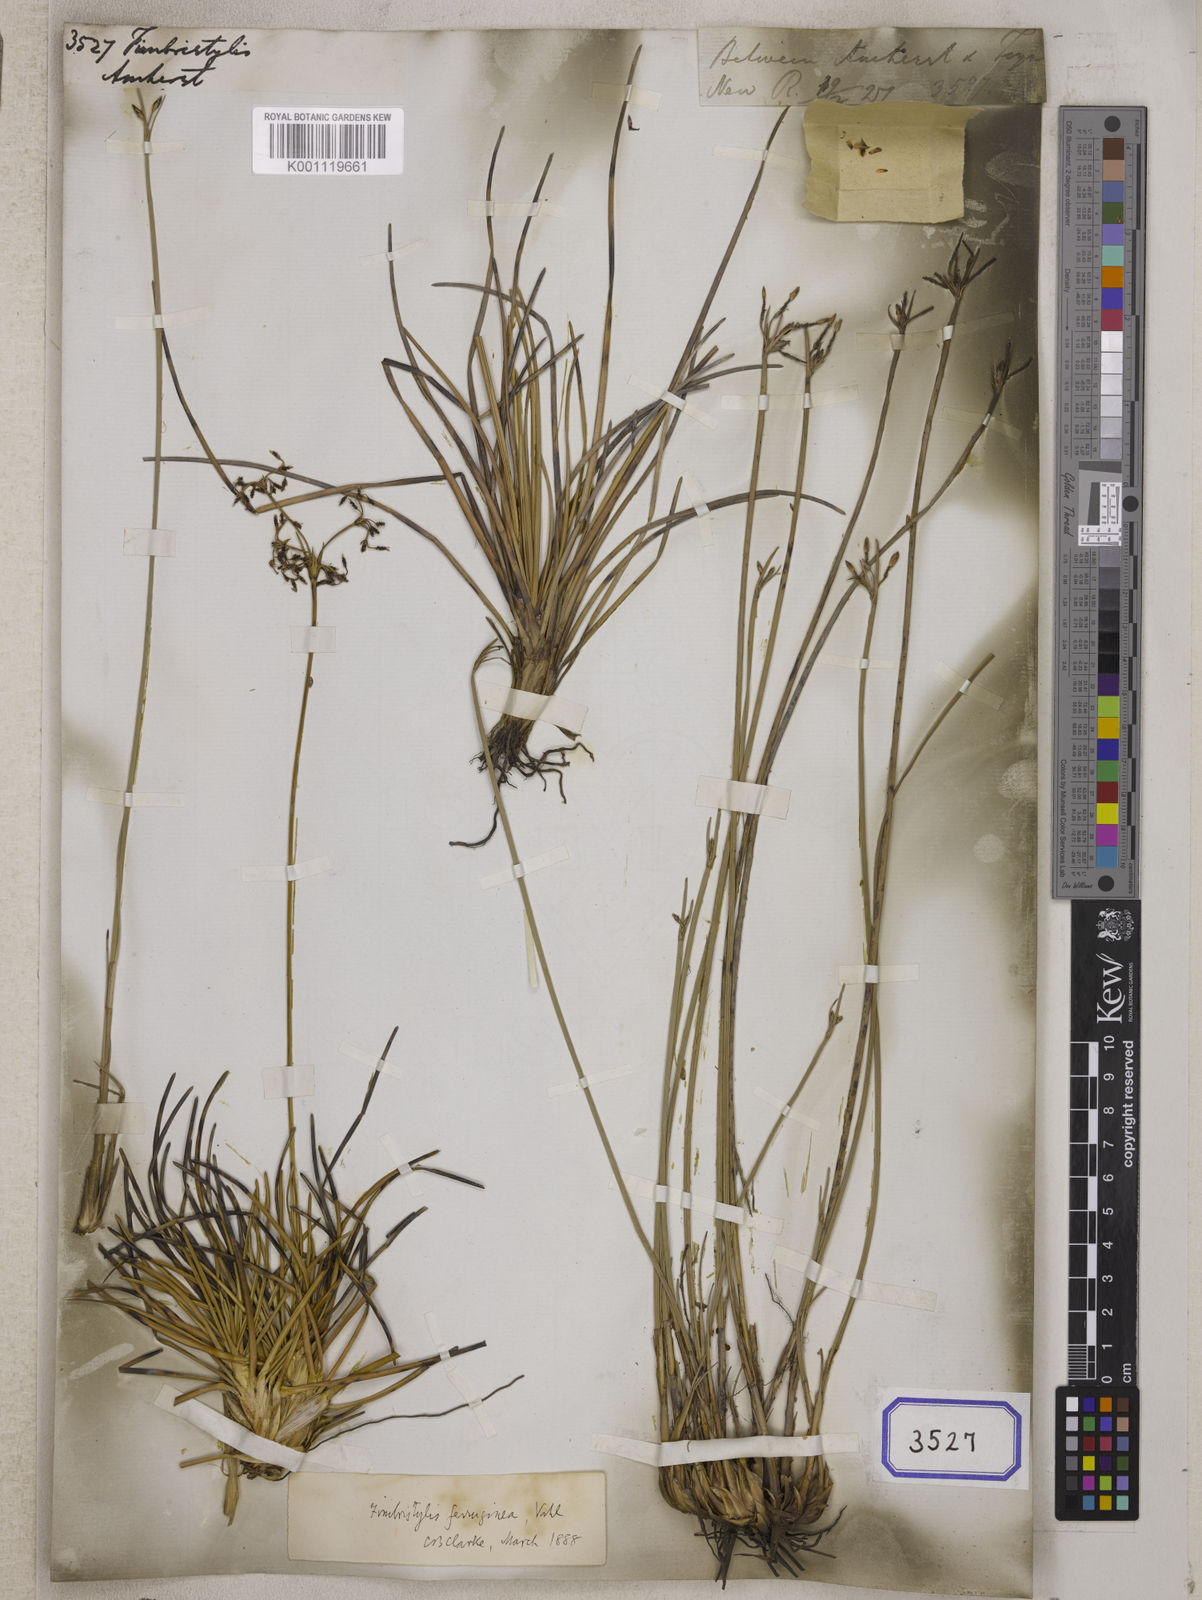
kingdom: Plantae
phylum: Tracheophyta
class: Liliopsida
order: Poales
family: Cyperaceae
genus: Fimbristylis
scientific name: Fimbristylis
